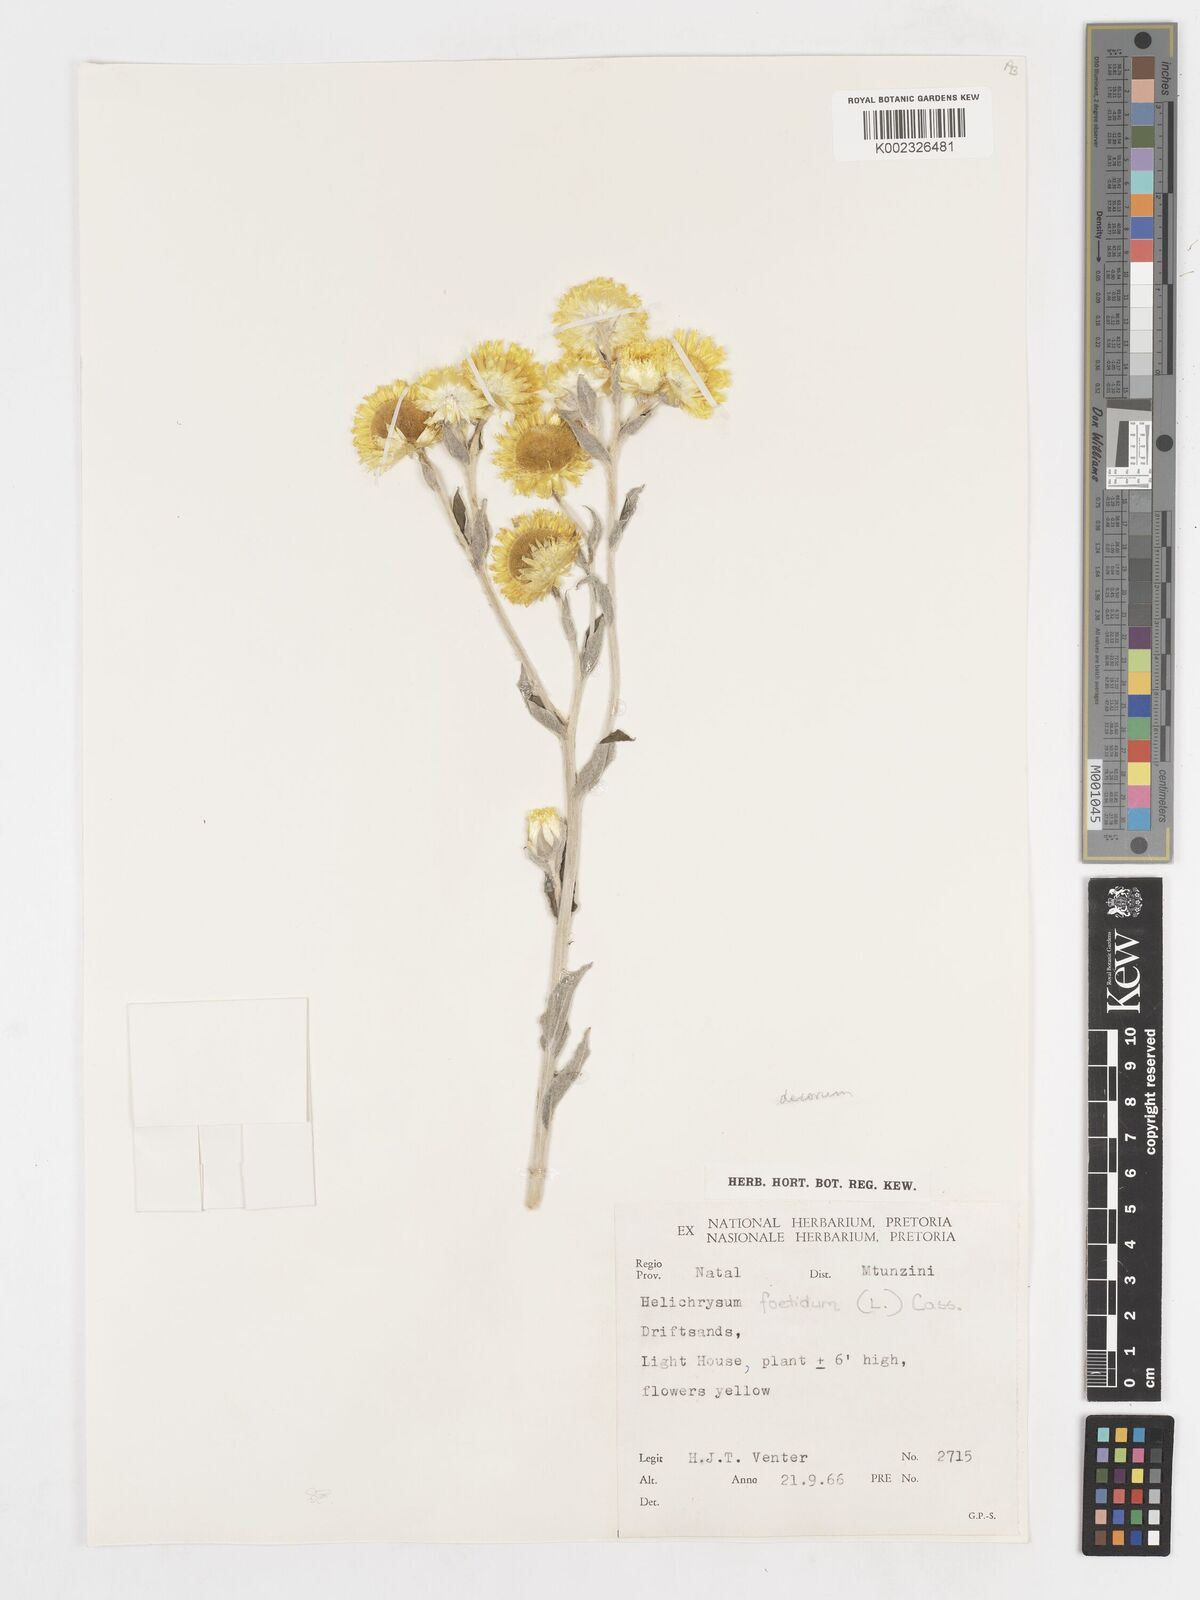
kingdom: Plantae
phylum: Tracheophyta
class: Magnoliopsida
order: Asterales
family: Asteraceae
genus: Helichrysum
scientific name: Helichrysum decorum
